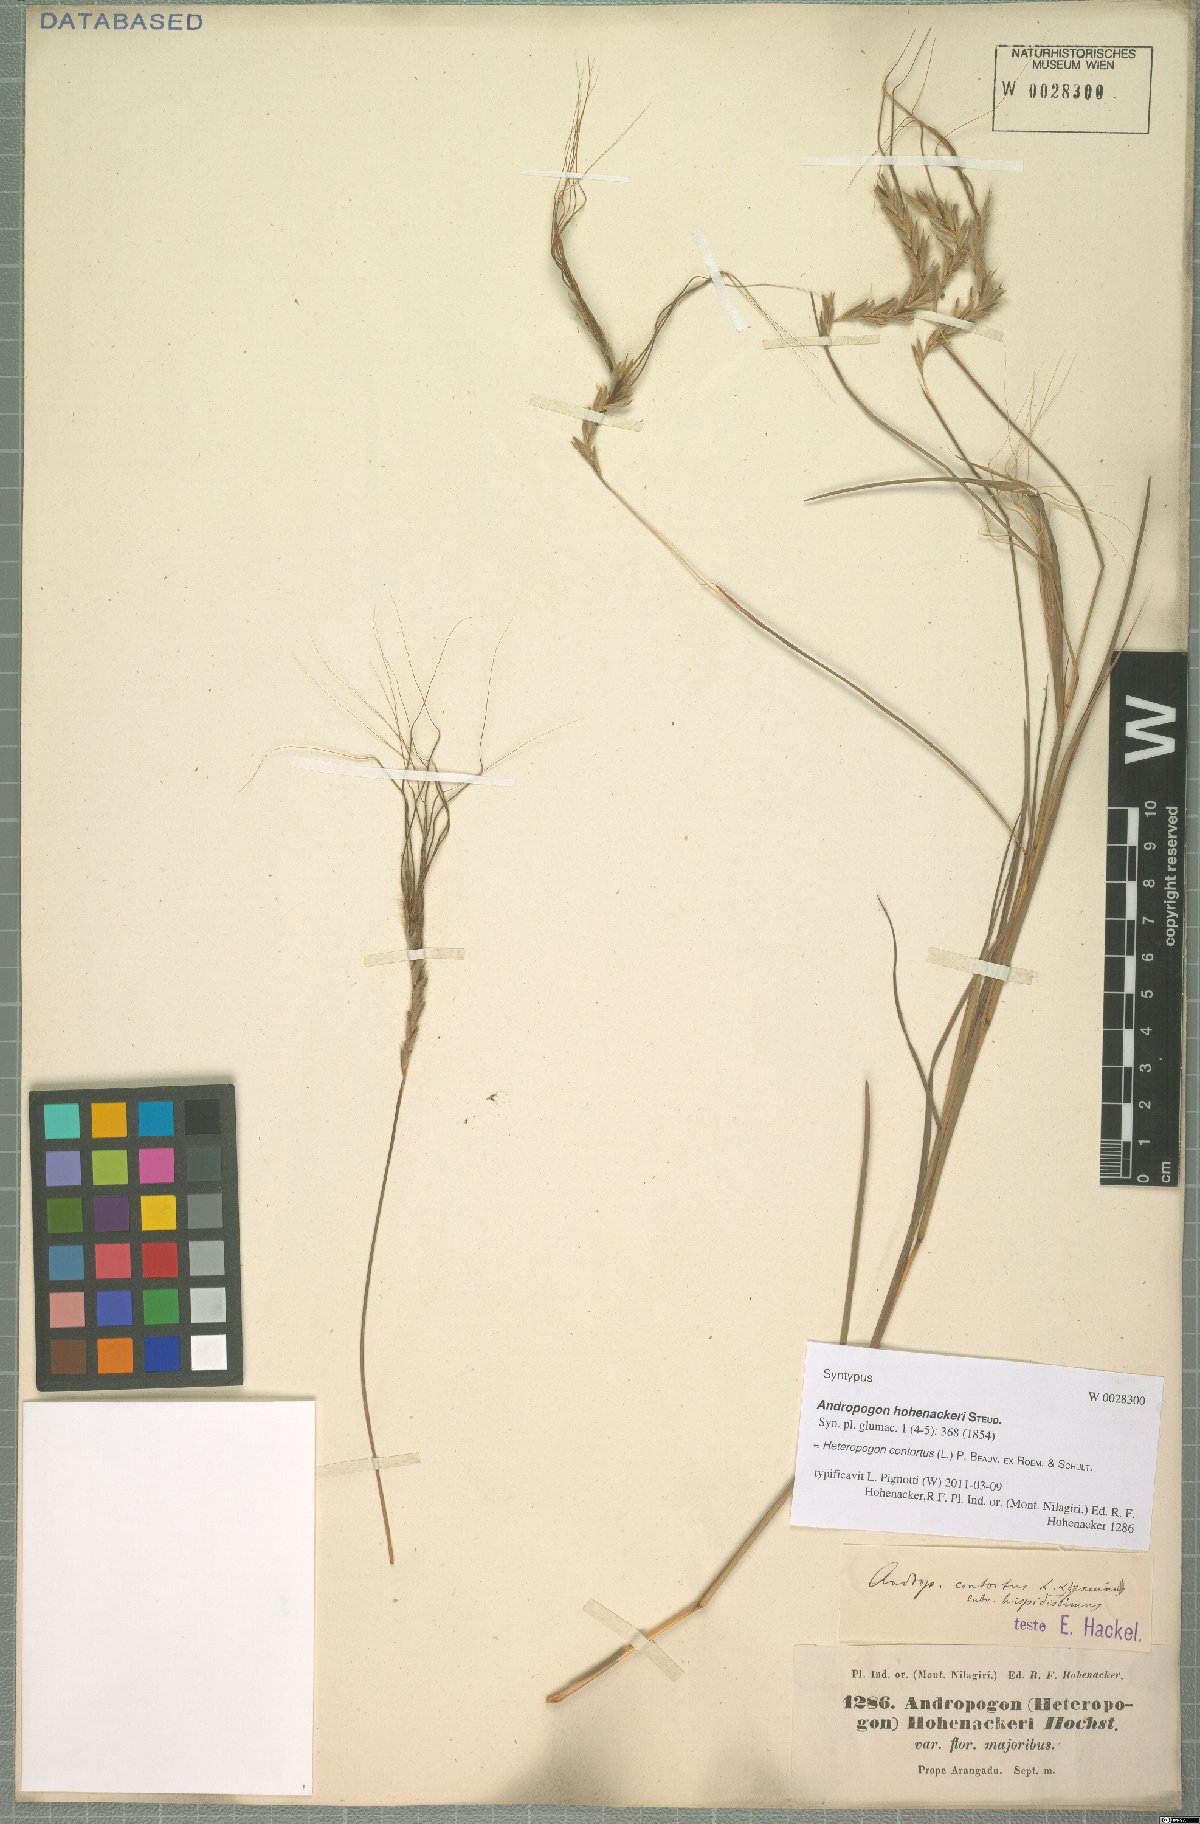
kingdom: Plantae
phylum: Tracheophyta
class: Liliopsida
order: Poales
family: Poaceae
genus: Heteropogon
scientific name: Heteropogon contortus
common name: Tanglehead
